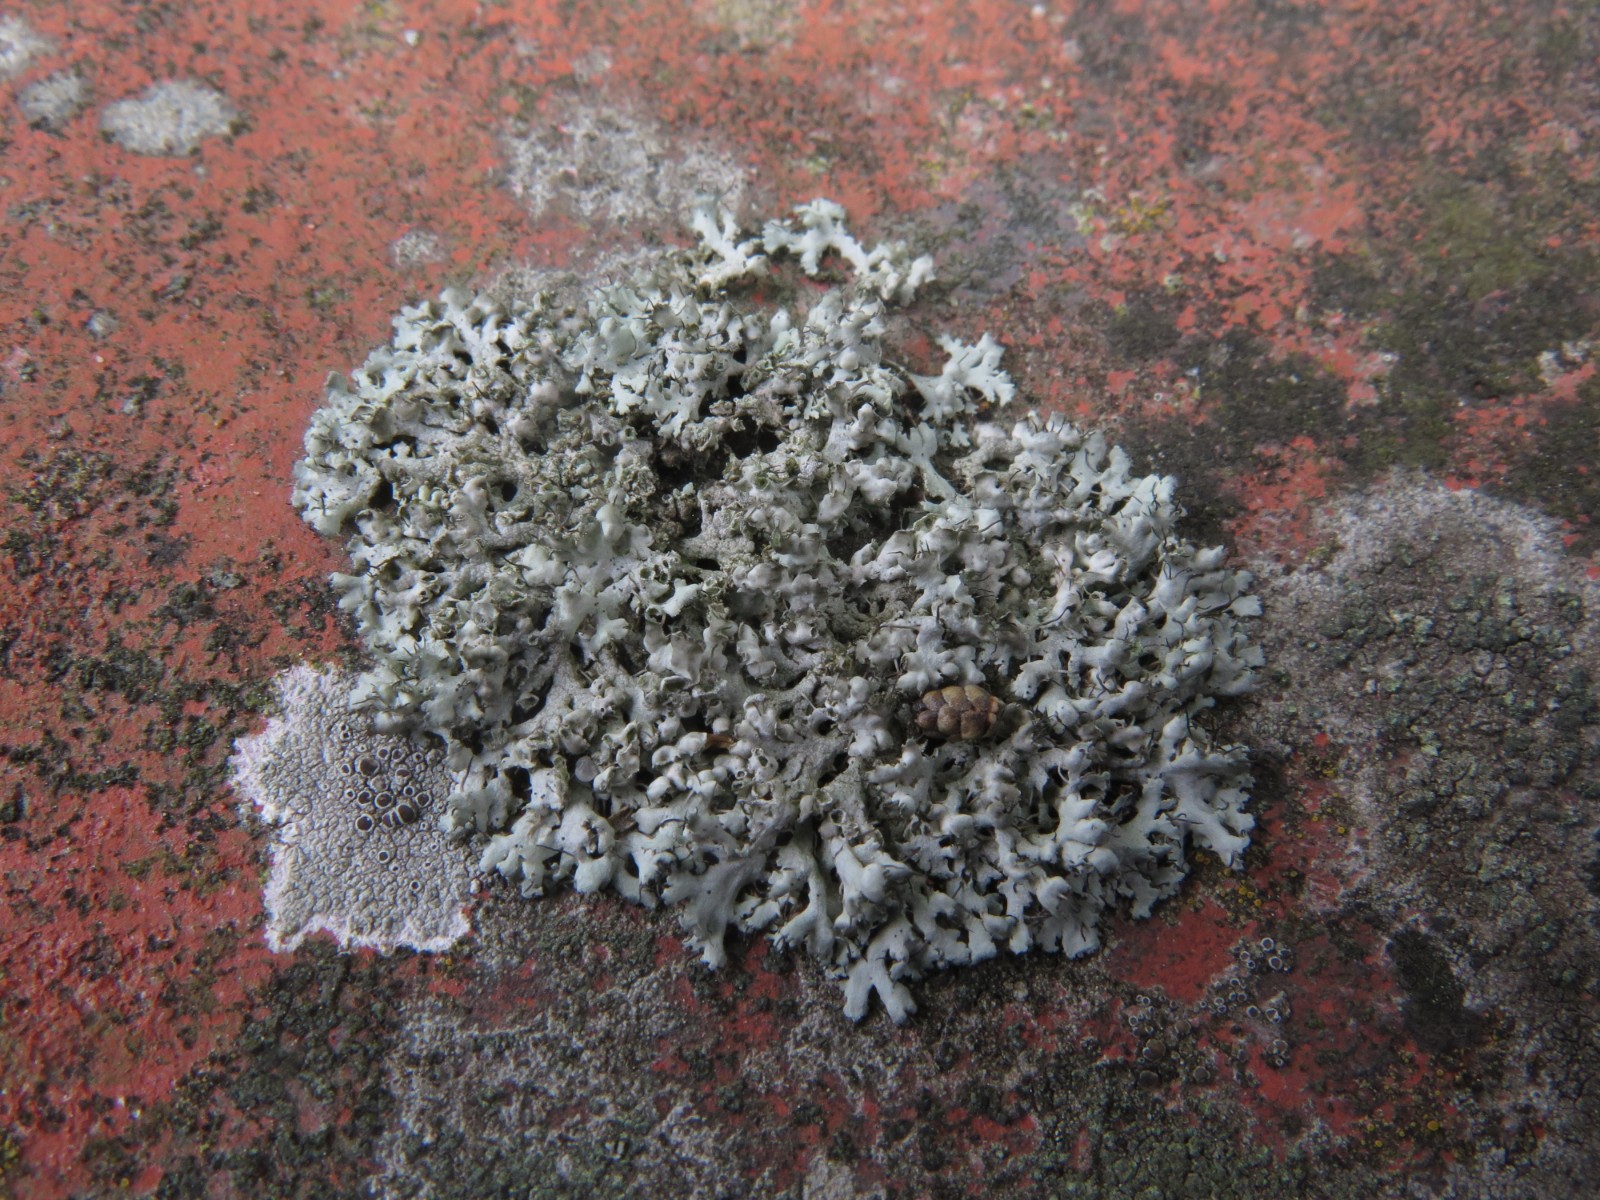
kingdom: Fungi
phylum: Ascomycota
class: Lecanoromycetes
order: Caliciales
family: Physciaceae
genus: Physcia
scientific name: Physcia adscendens
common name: hætte-rosetlav
